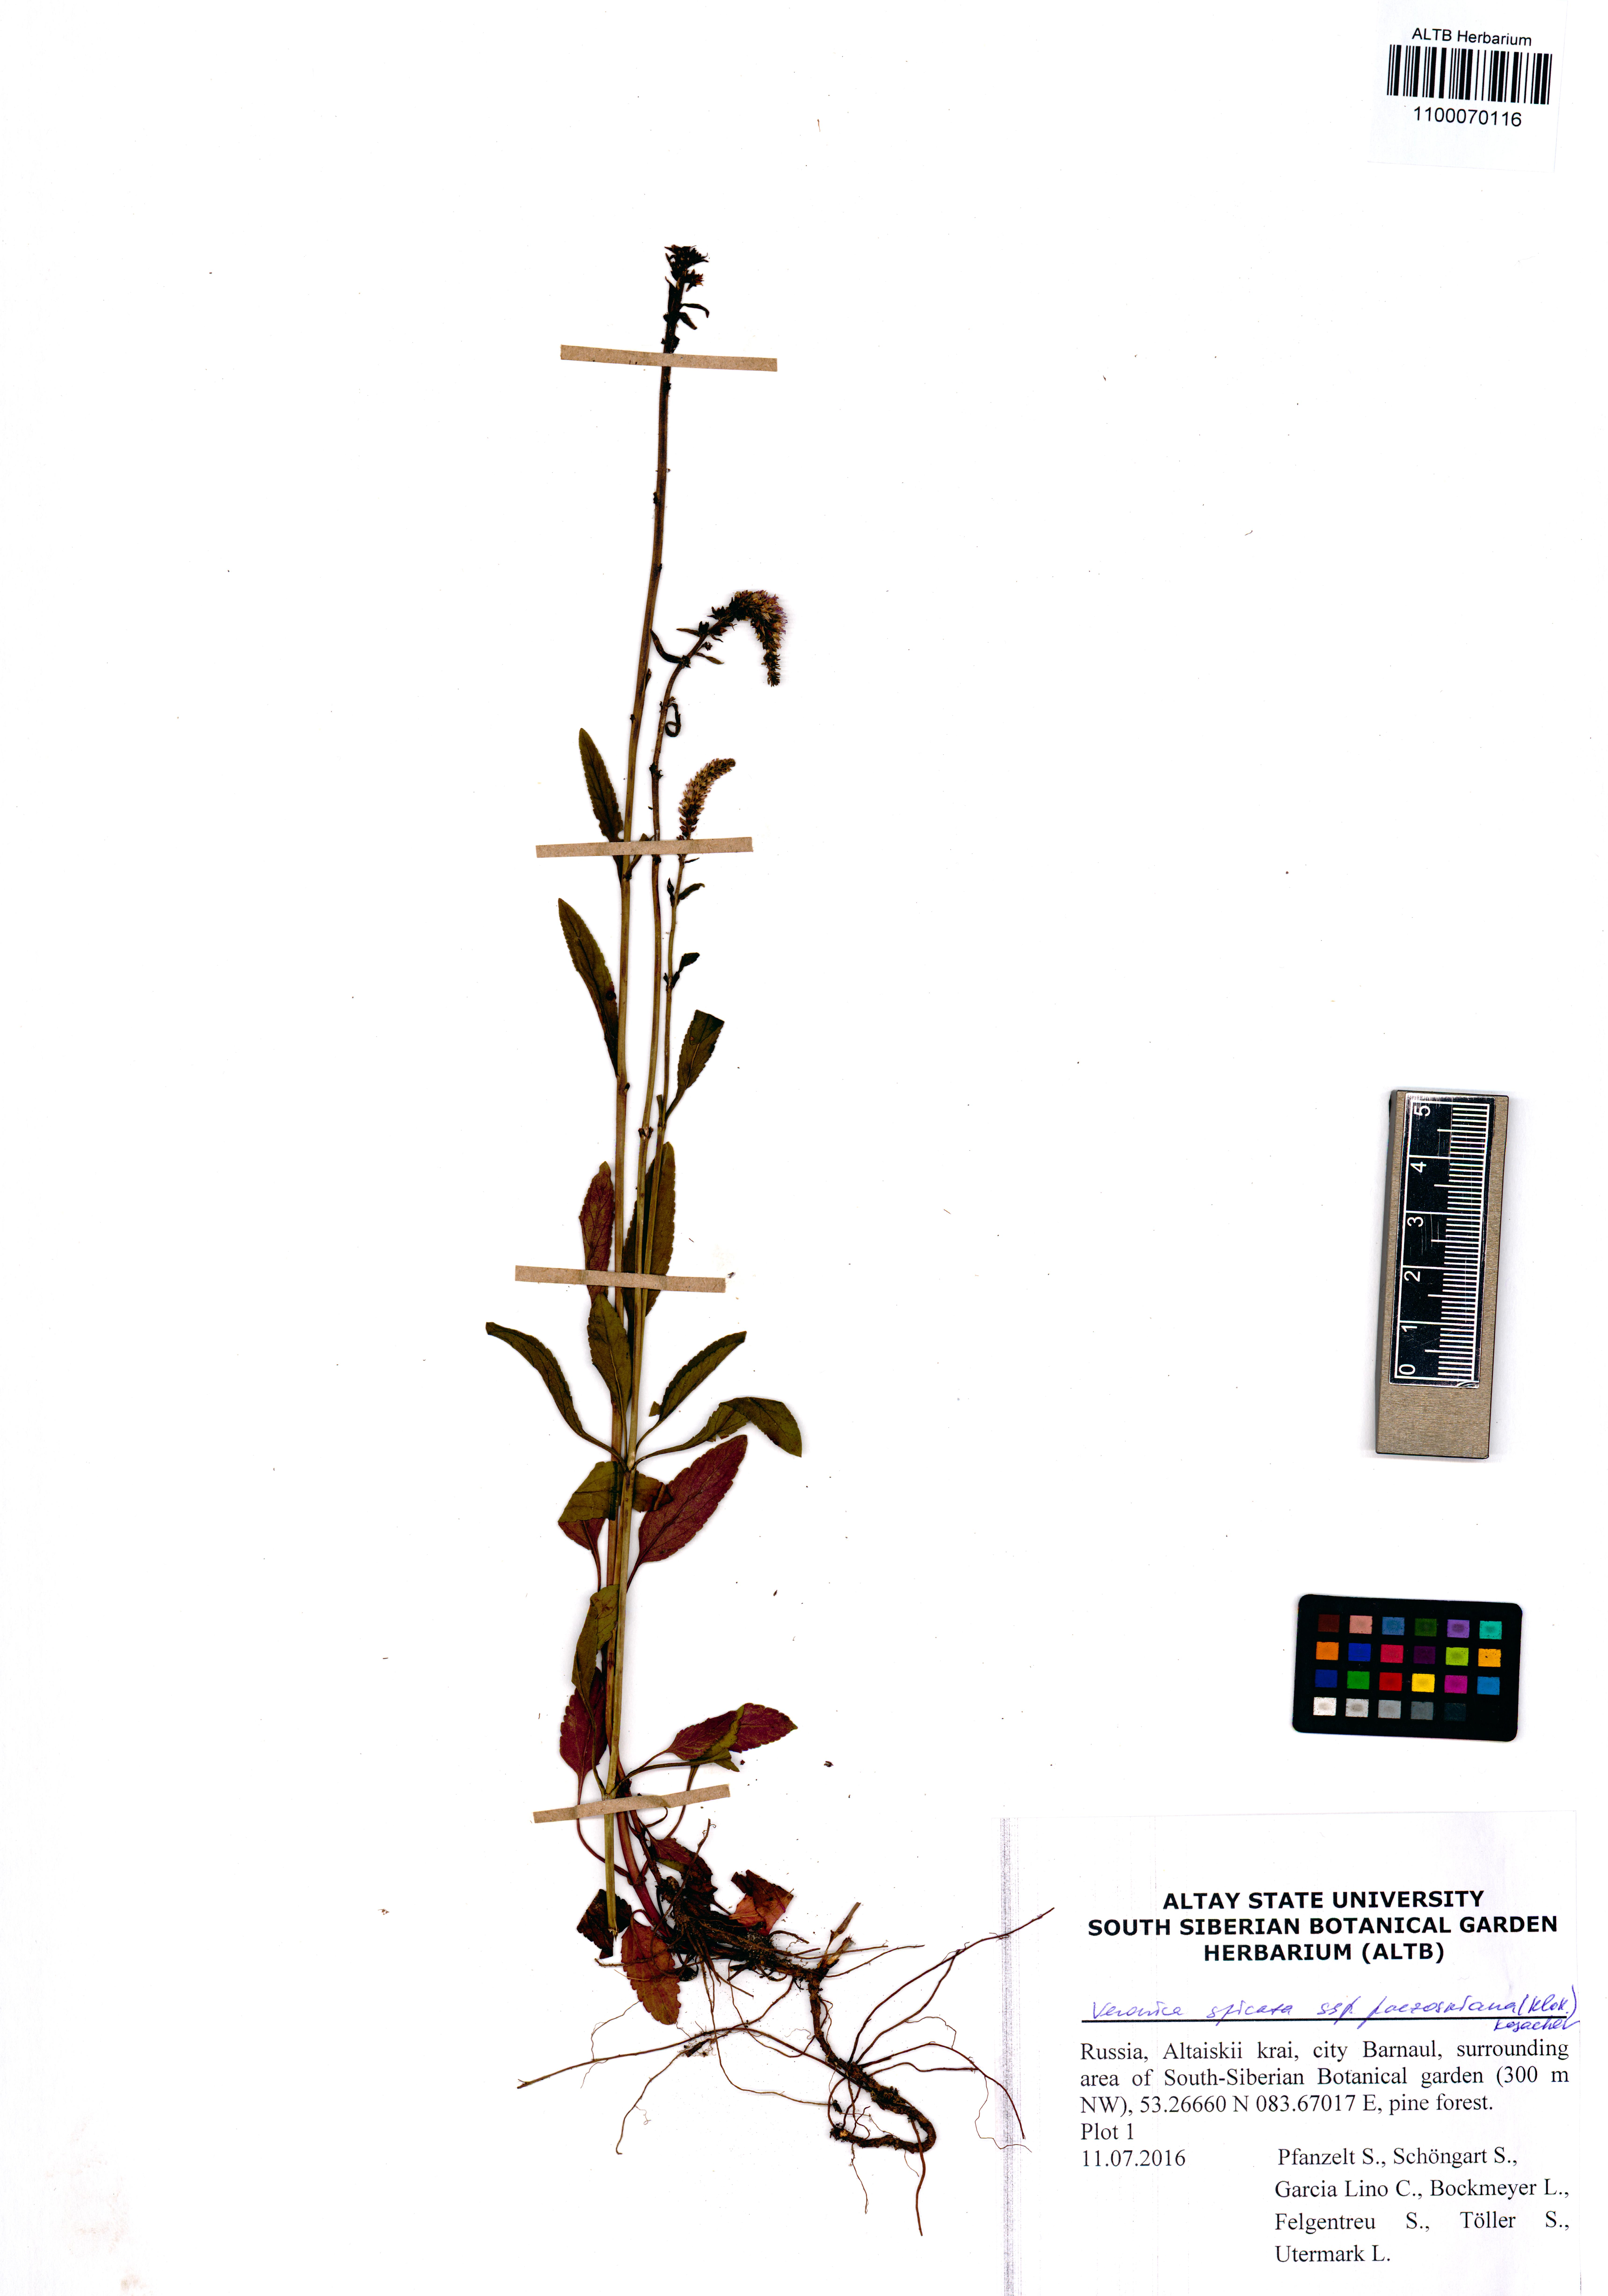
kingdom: Plantae
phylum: Tracheophyta
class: Magnoliopsida
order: Lamiales
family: Plantaginaceae
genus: Veronica
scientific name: Veronica spicata
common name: Spiked speedwell
